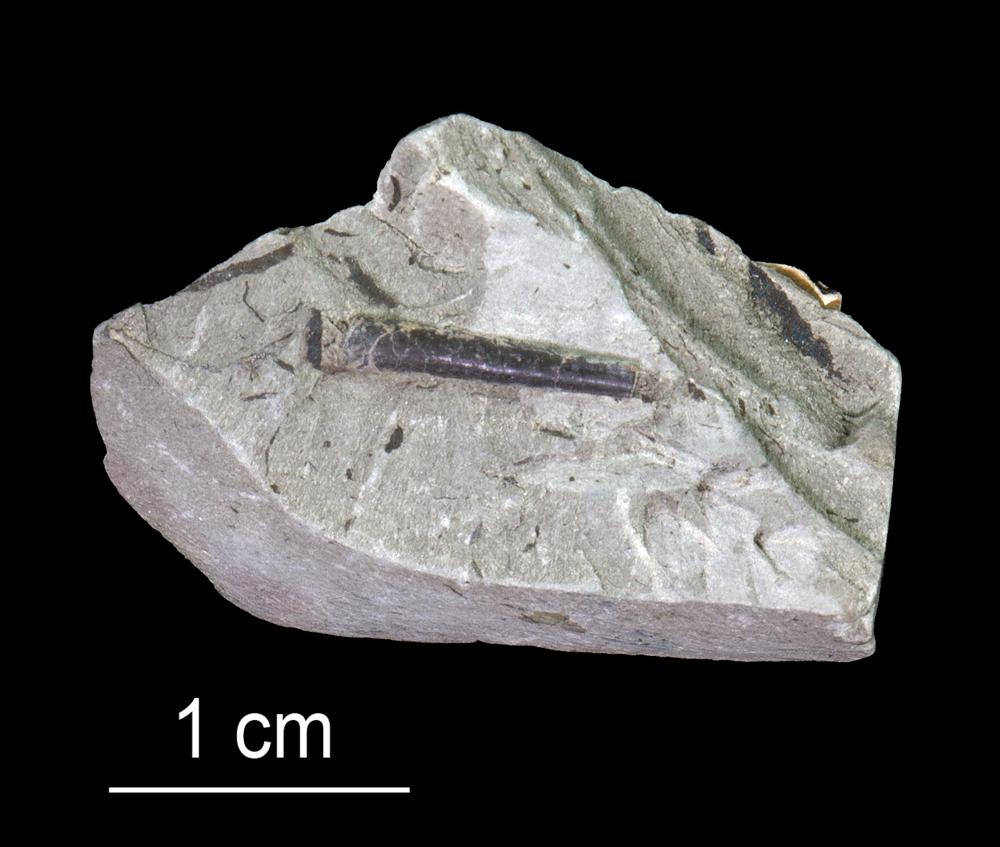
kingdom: Animalia
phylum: Annelida
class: Polychaeta
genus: Hyolithes
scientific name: Hyolithes
